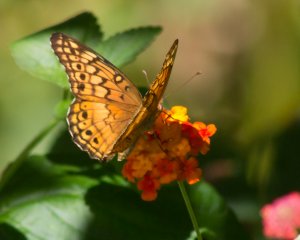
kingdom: Animalia
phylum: Arthropoda
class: Insecta
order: Lepidoptera
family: Nymphalidae
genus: Euptoieta
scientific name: Euptoieta claudia
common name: Variegated Fritillary
